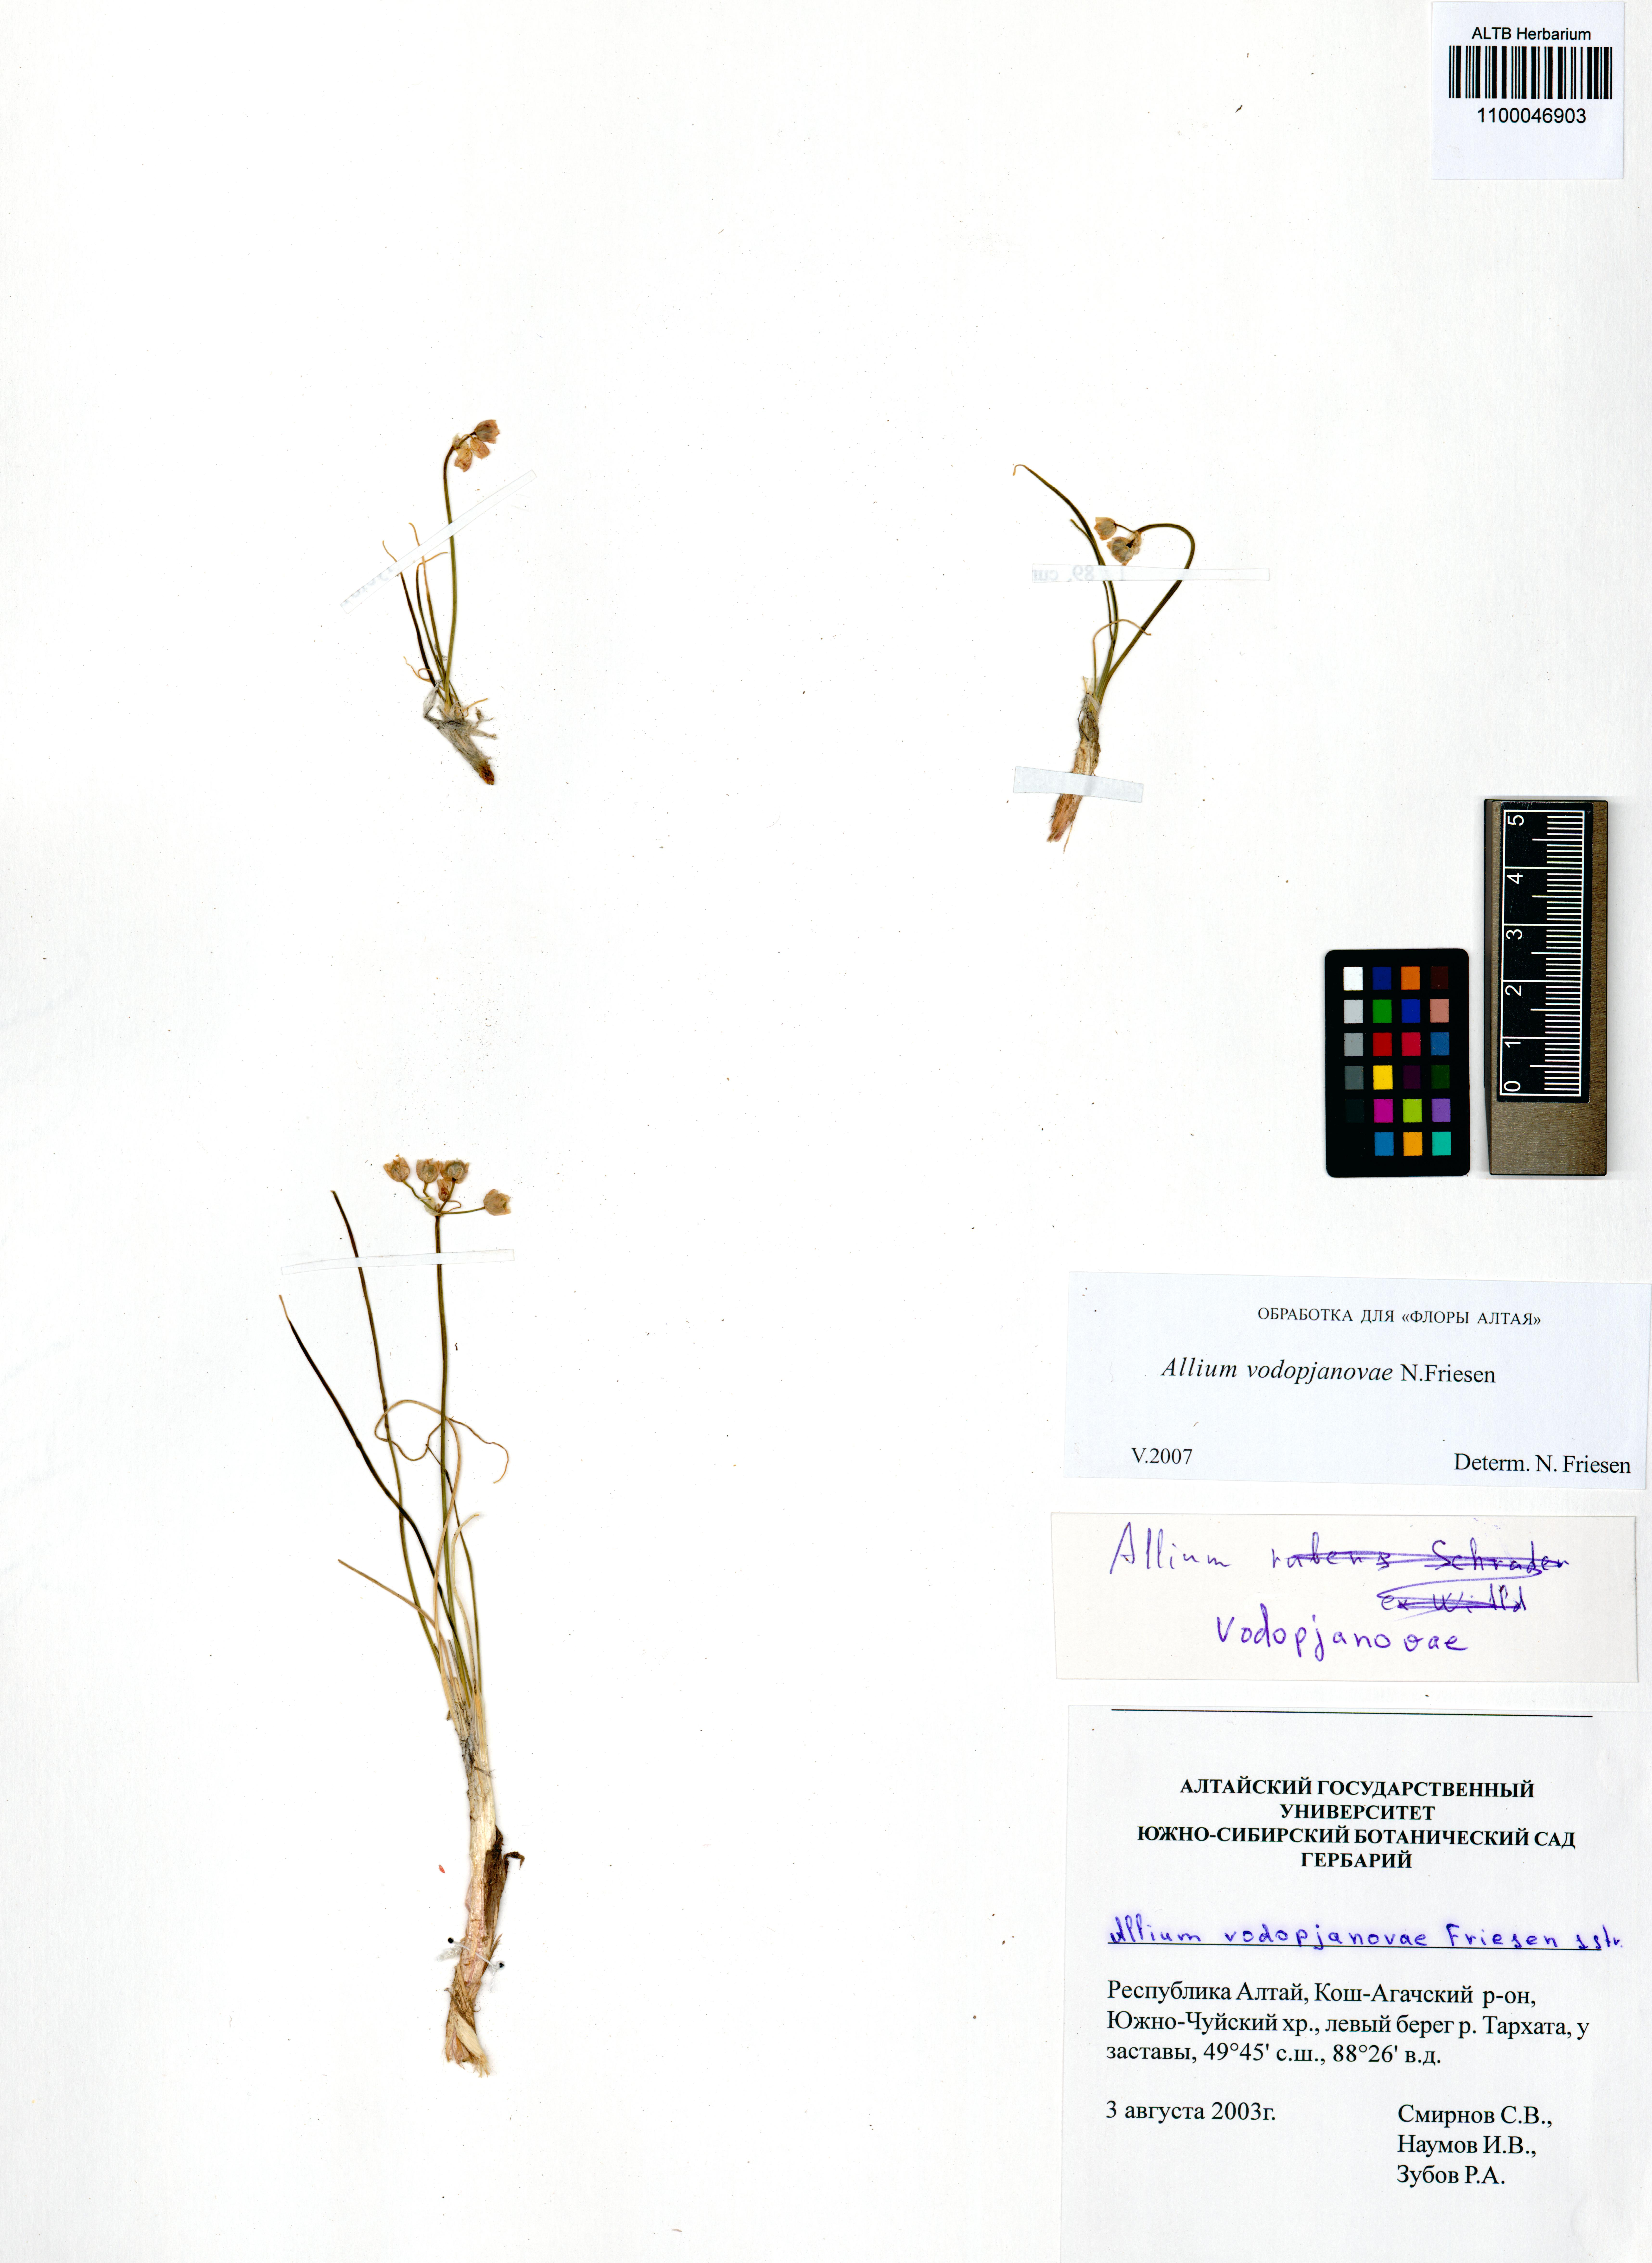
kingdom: Plantae
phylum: Tracheophyta
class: Liliopsida
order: Asparagales
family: Amaryllidaceae
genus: Allium
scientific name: Allium vodopjanovae
